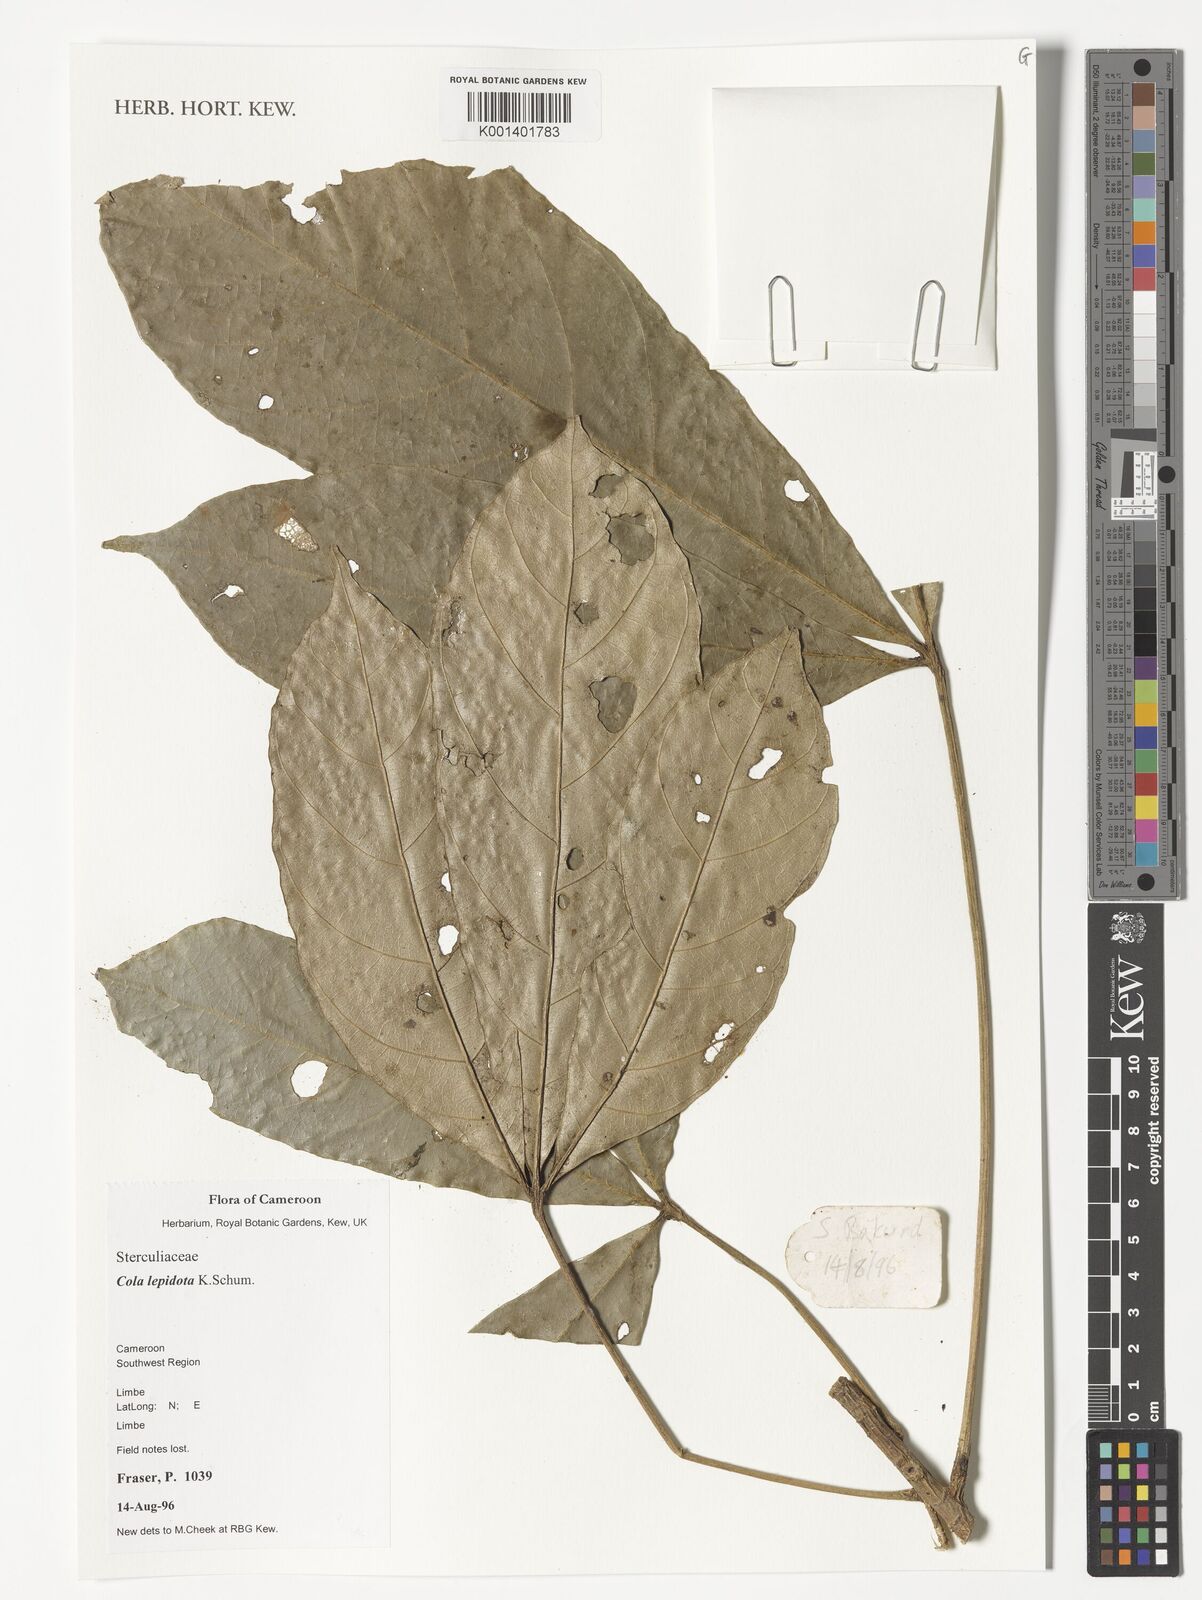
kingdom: Plantae
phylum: Tracheophyta
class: Magnoliopsida
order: Malvales
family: Malvaceae
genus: Cola
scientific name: Cola lepidota
